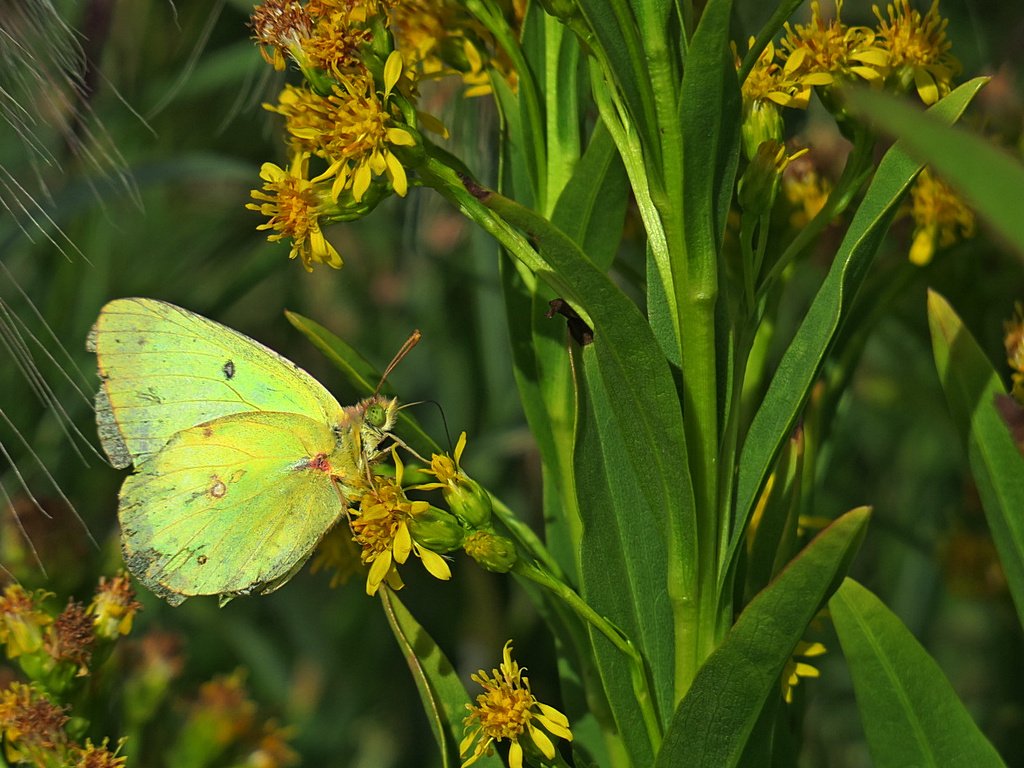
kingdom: Animalia
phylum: Arthropoda
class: Insecta
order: Lepidoptera
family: Pieridae
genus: Colias
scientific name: Colias philodice
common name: Clouded Sulphur
